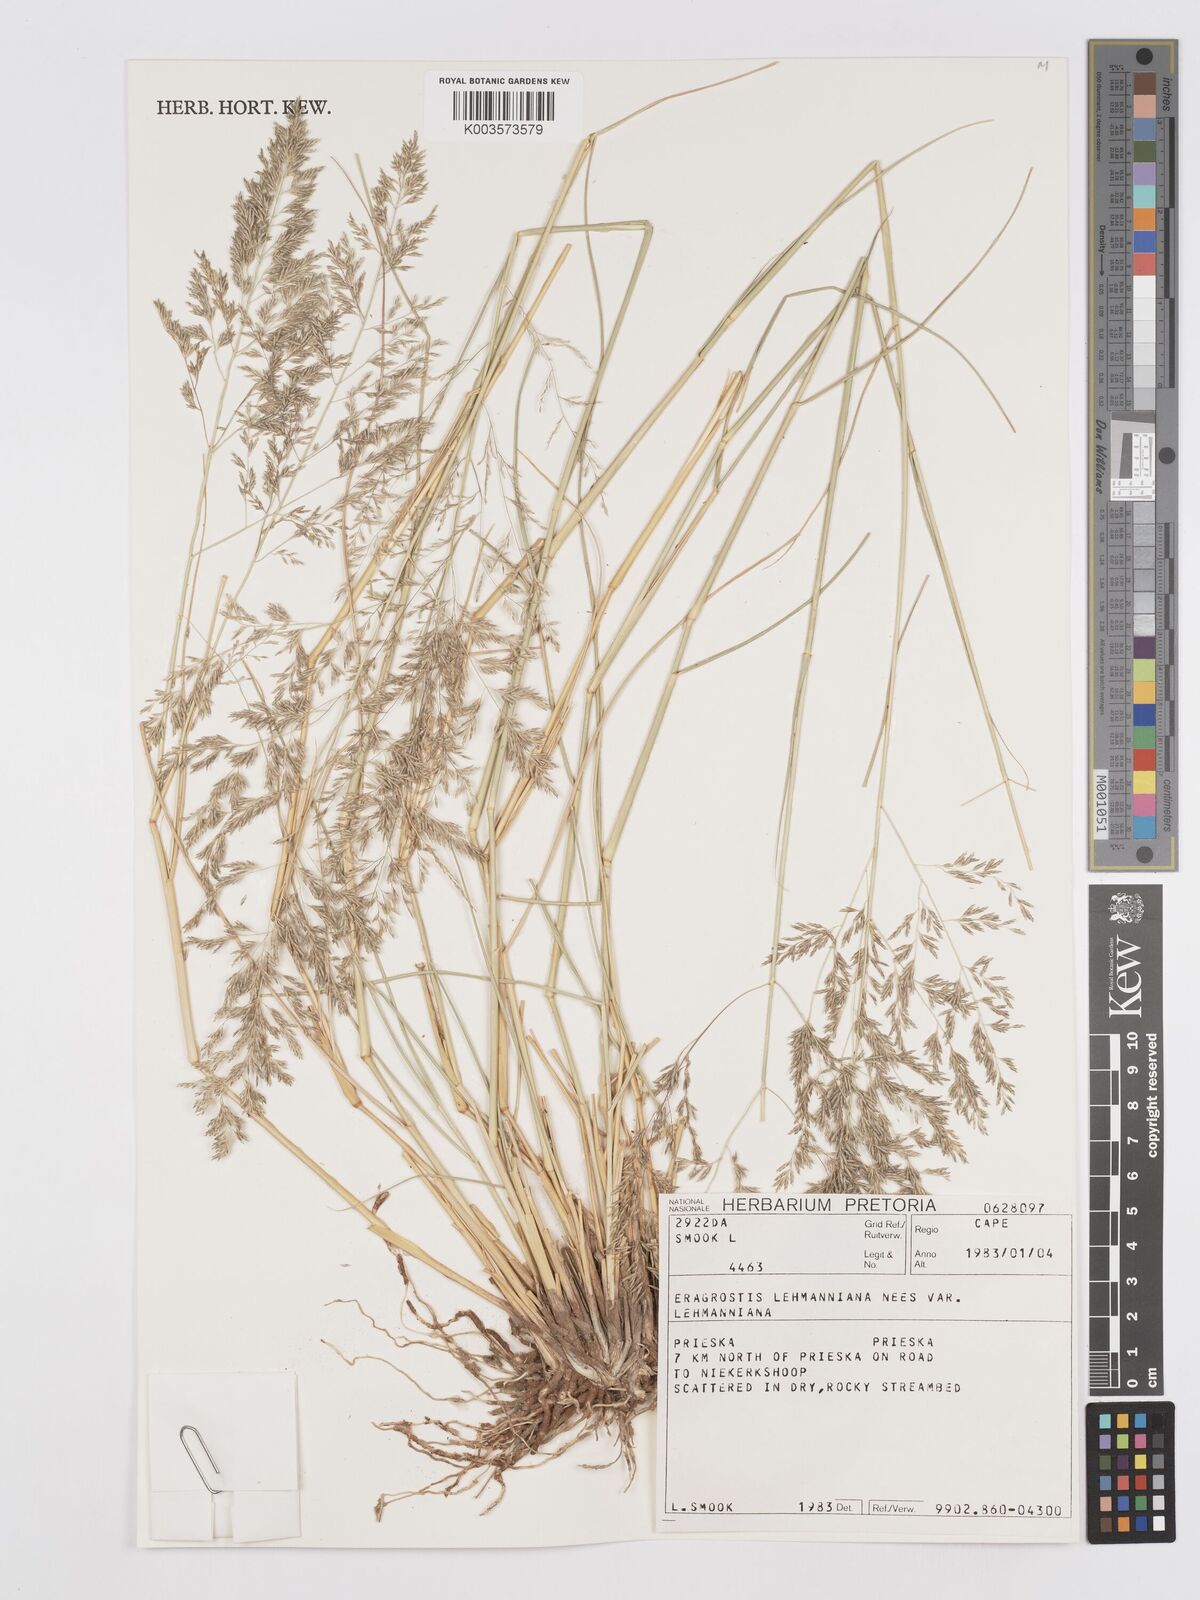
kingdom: Plantae
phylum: Tracheophyta
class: Liliopsida
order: Poales
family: Poaceae
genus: Eragrostis
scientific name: Eragrostis lehmanniana
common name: Lehmann lovegrass
